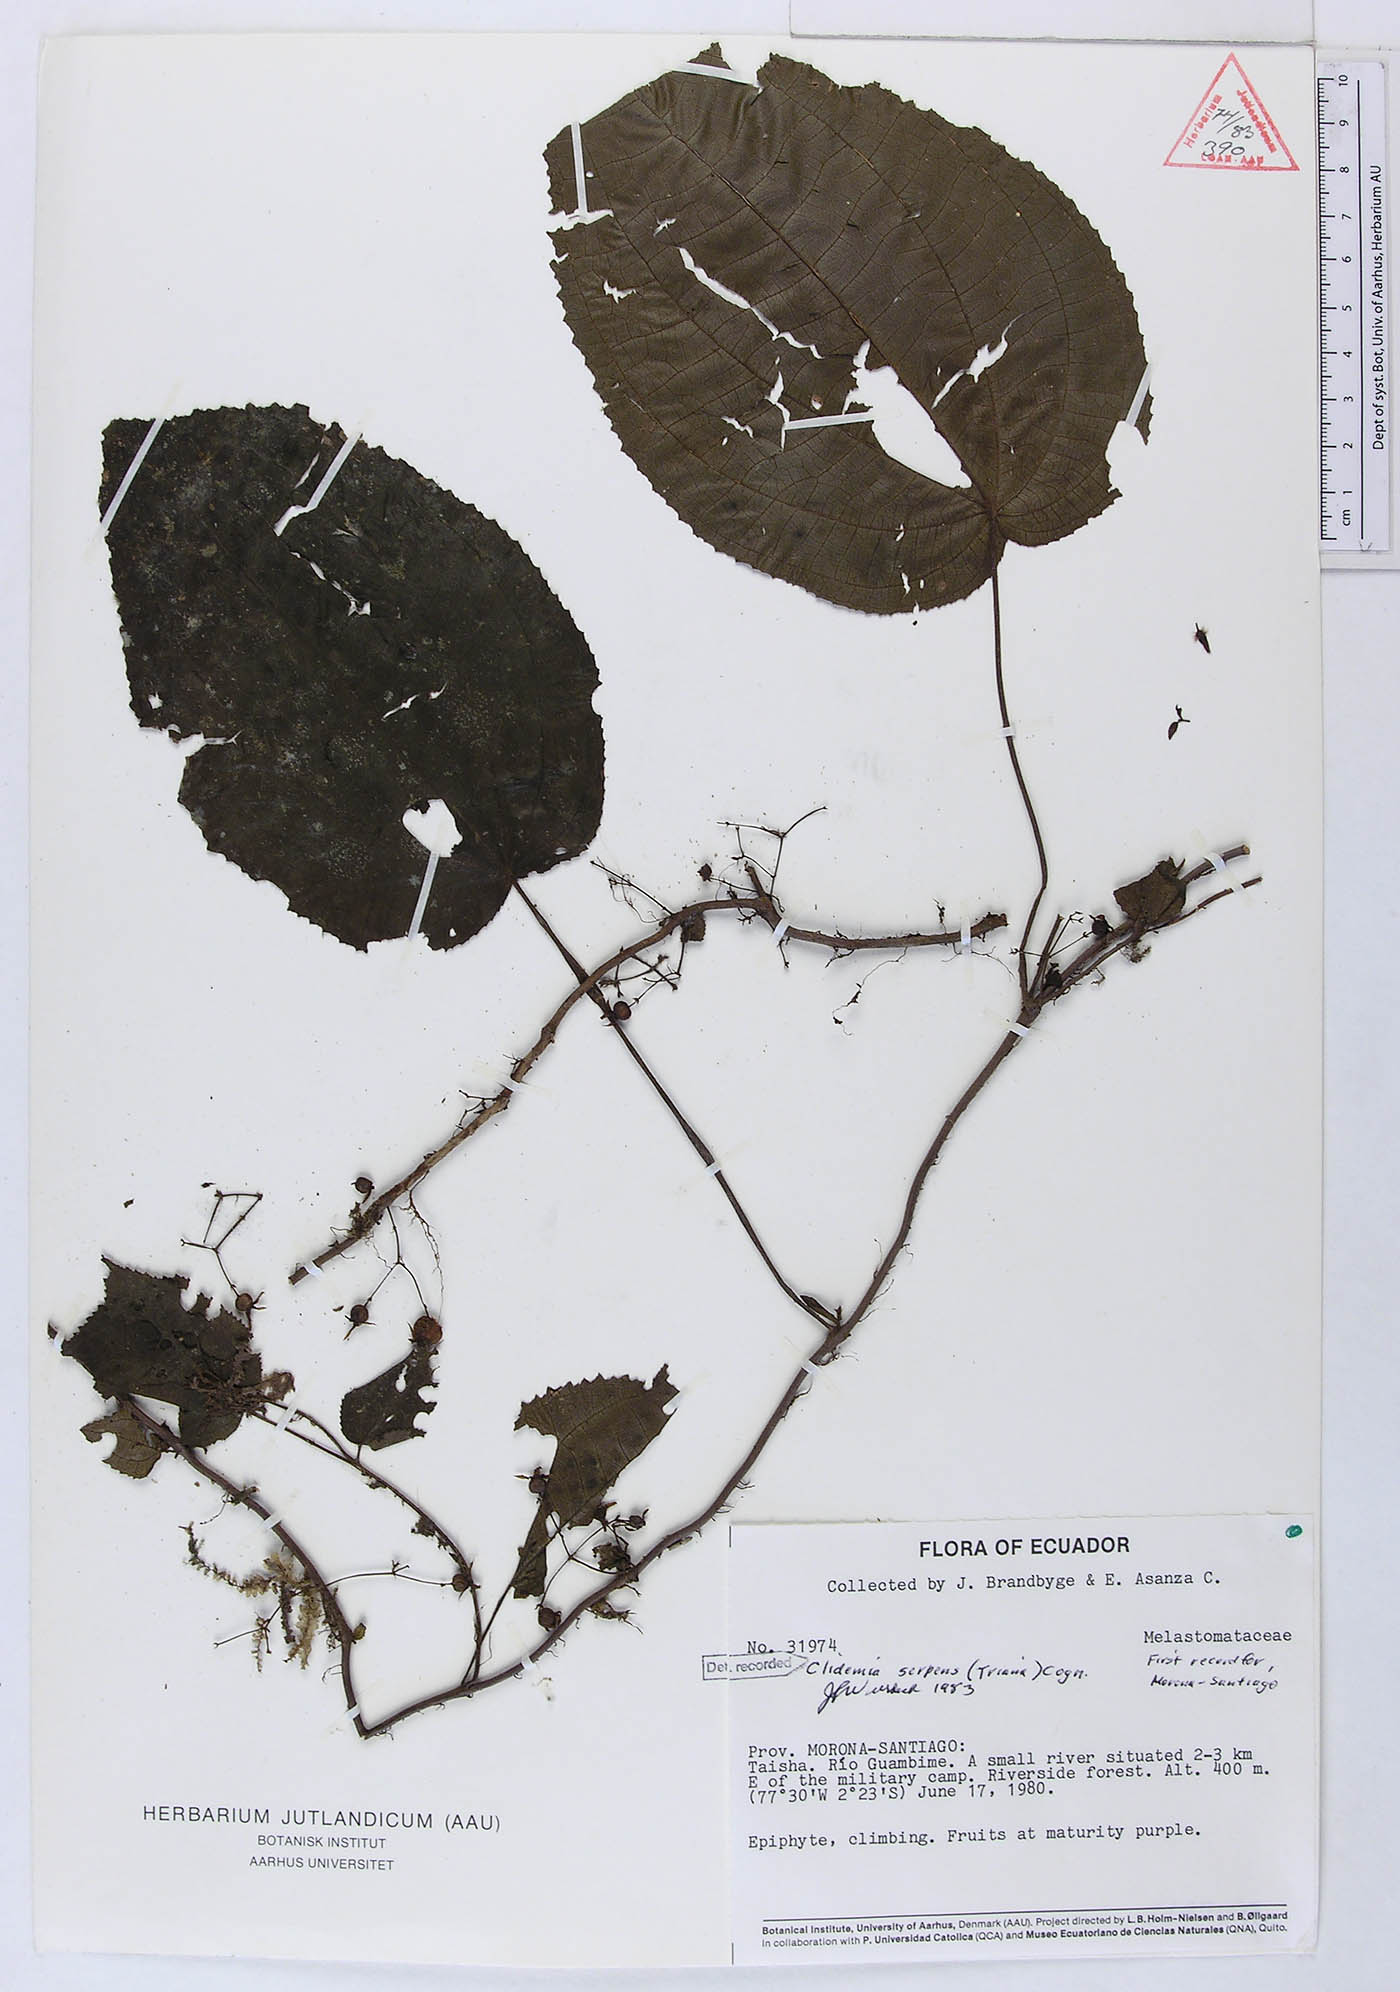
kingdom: Plantae
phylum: Tracheophyta
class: Magnoliopsida
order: Myrtales
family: Melastomataceae
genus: Miconia
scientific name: Miconia serpens
